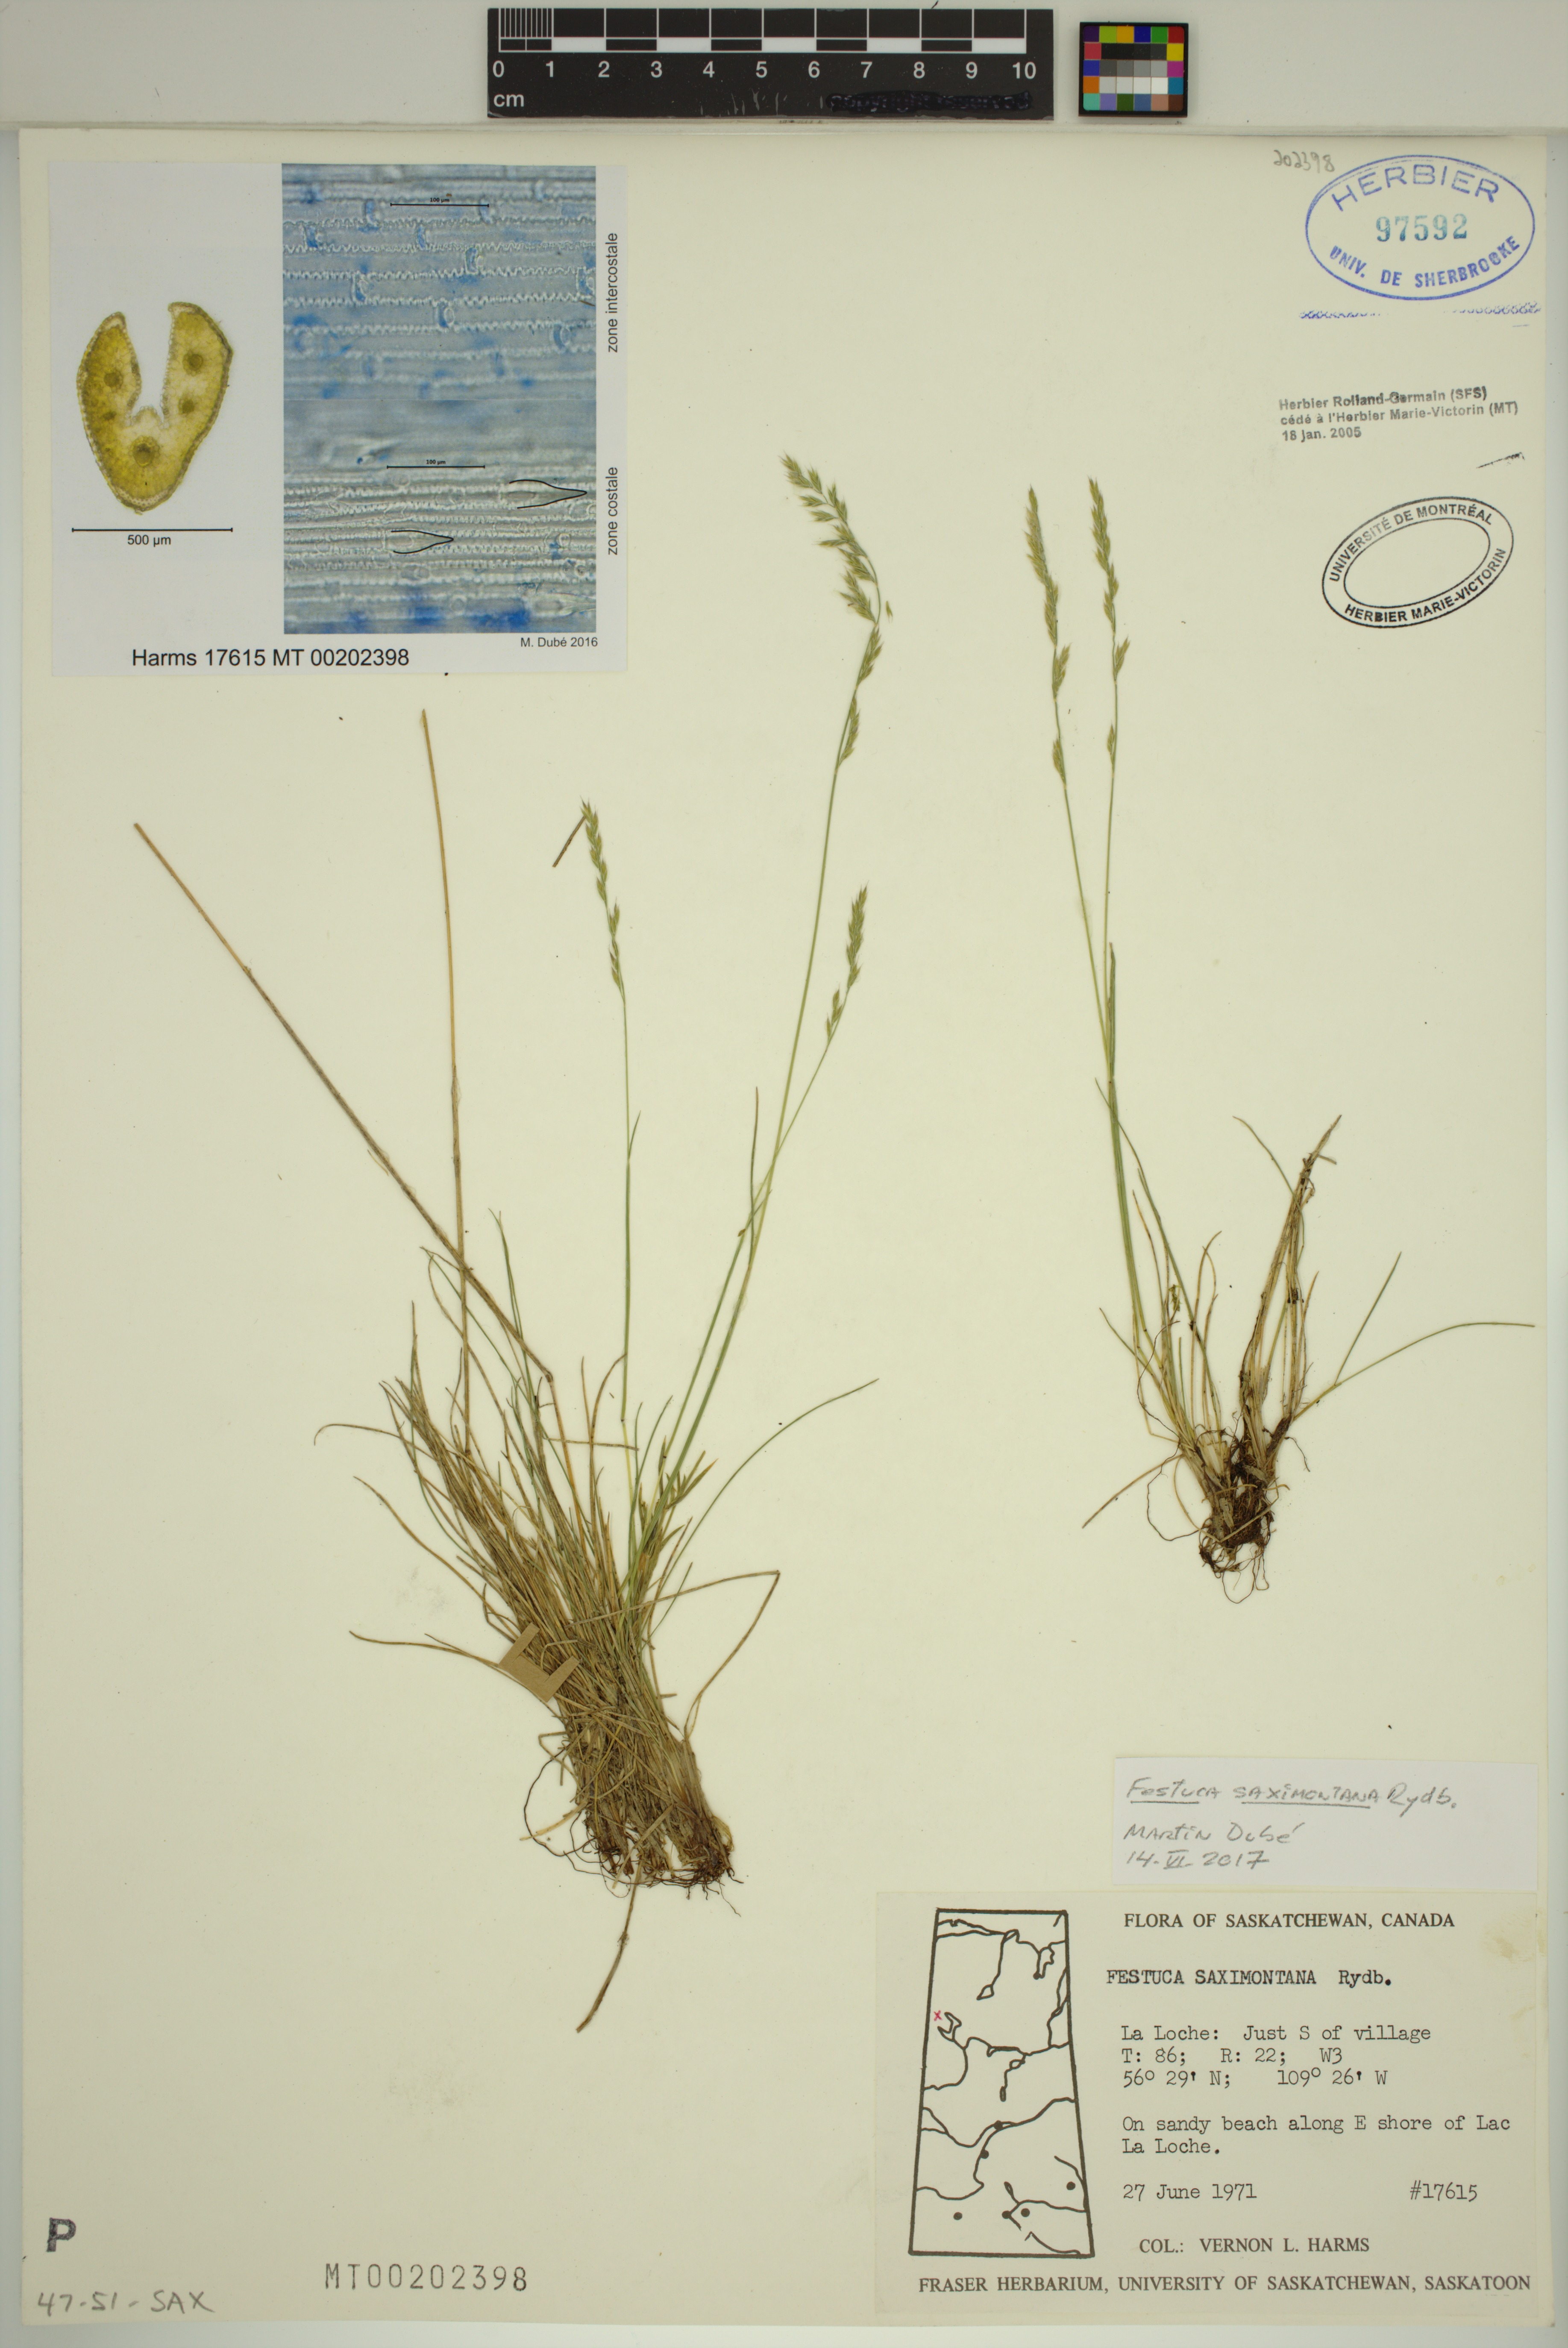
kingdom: Plantae
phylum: Tracheophyta
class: Liliopsida
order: Poales
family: Poaceae
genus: Festuca
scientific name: Festuca saximontana
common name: Mountain fescue
